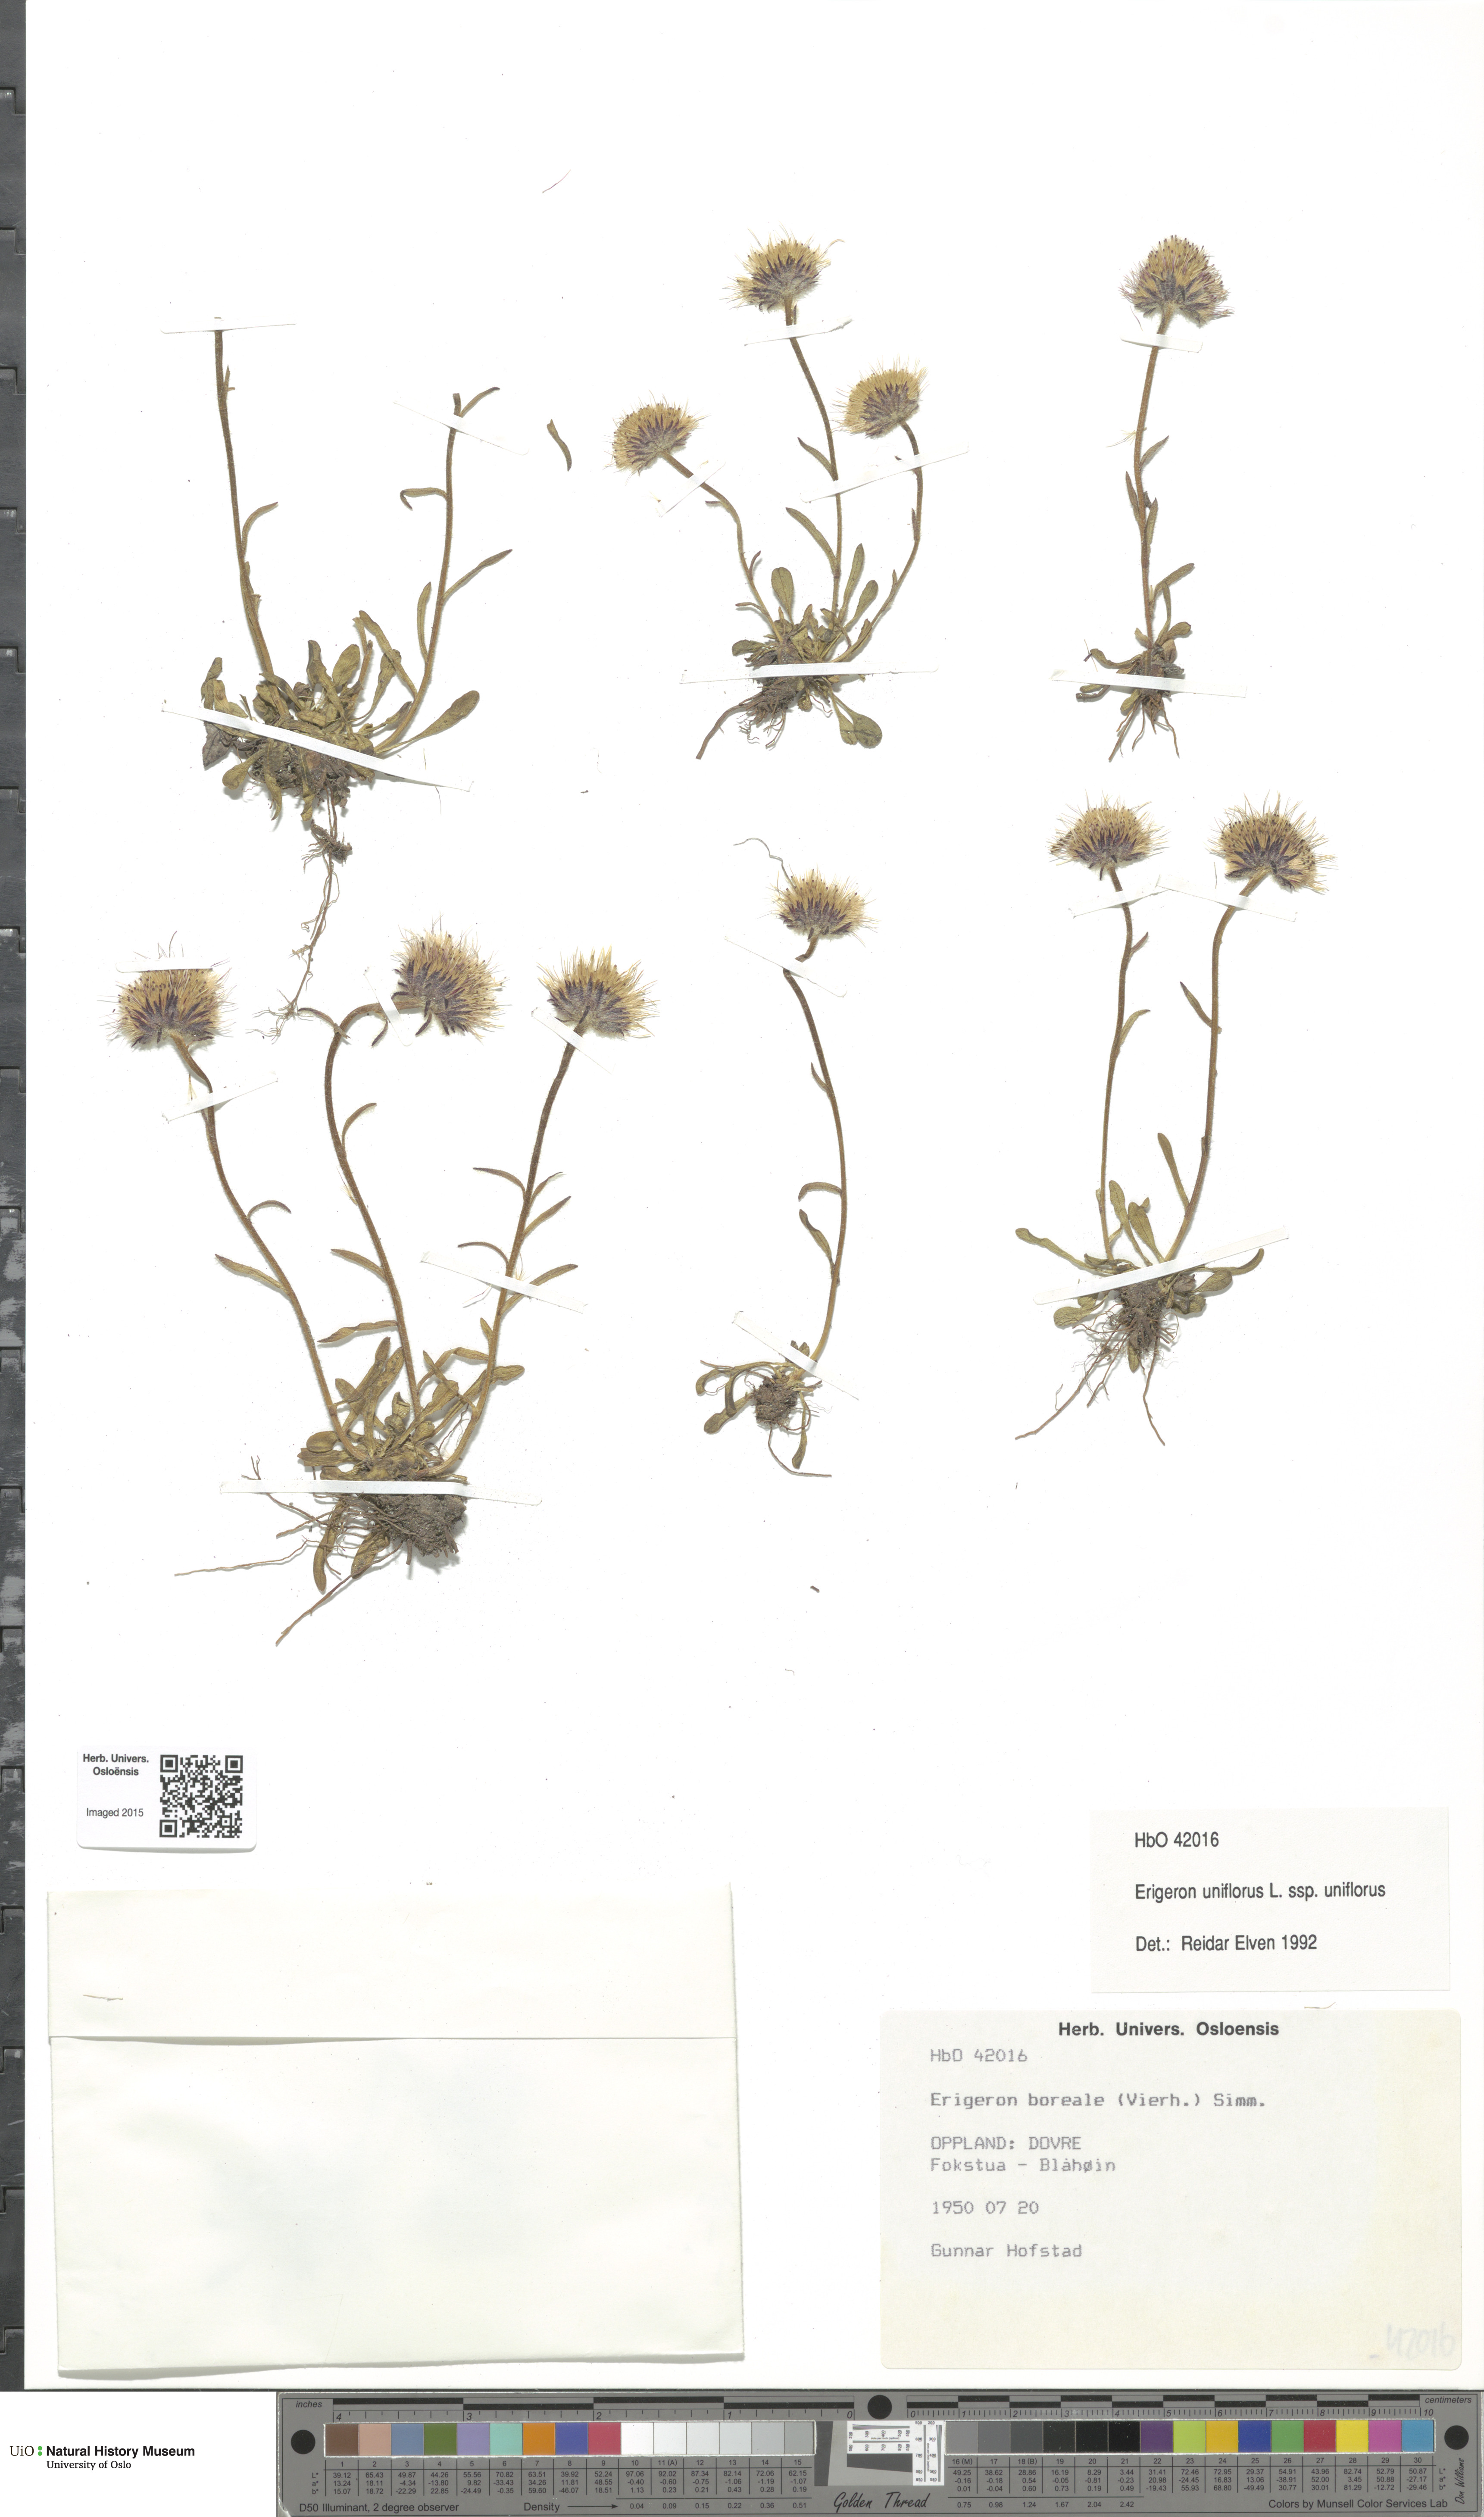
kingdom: Plantae
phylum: Tracheophyta
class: Magnoliopsida
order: Asterales
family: Asteraceae
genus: Erigeron
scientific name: Erigeron uniflorus
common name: Northern daisy
